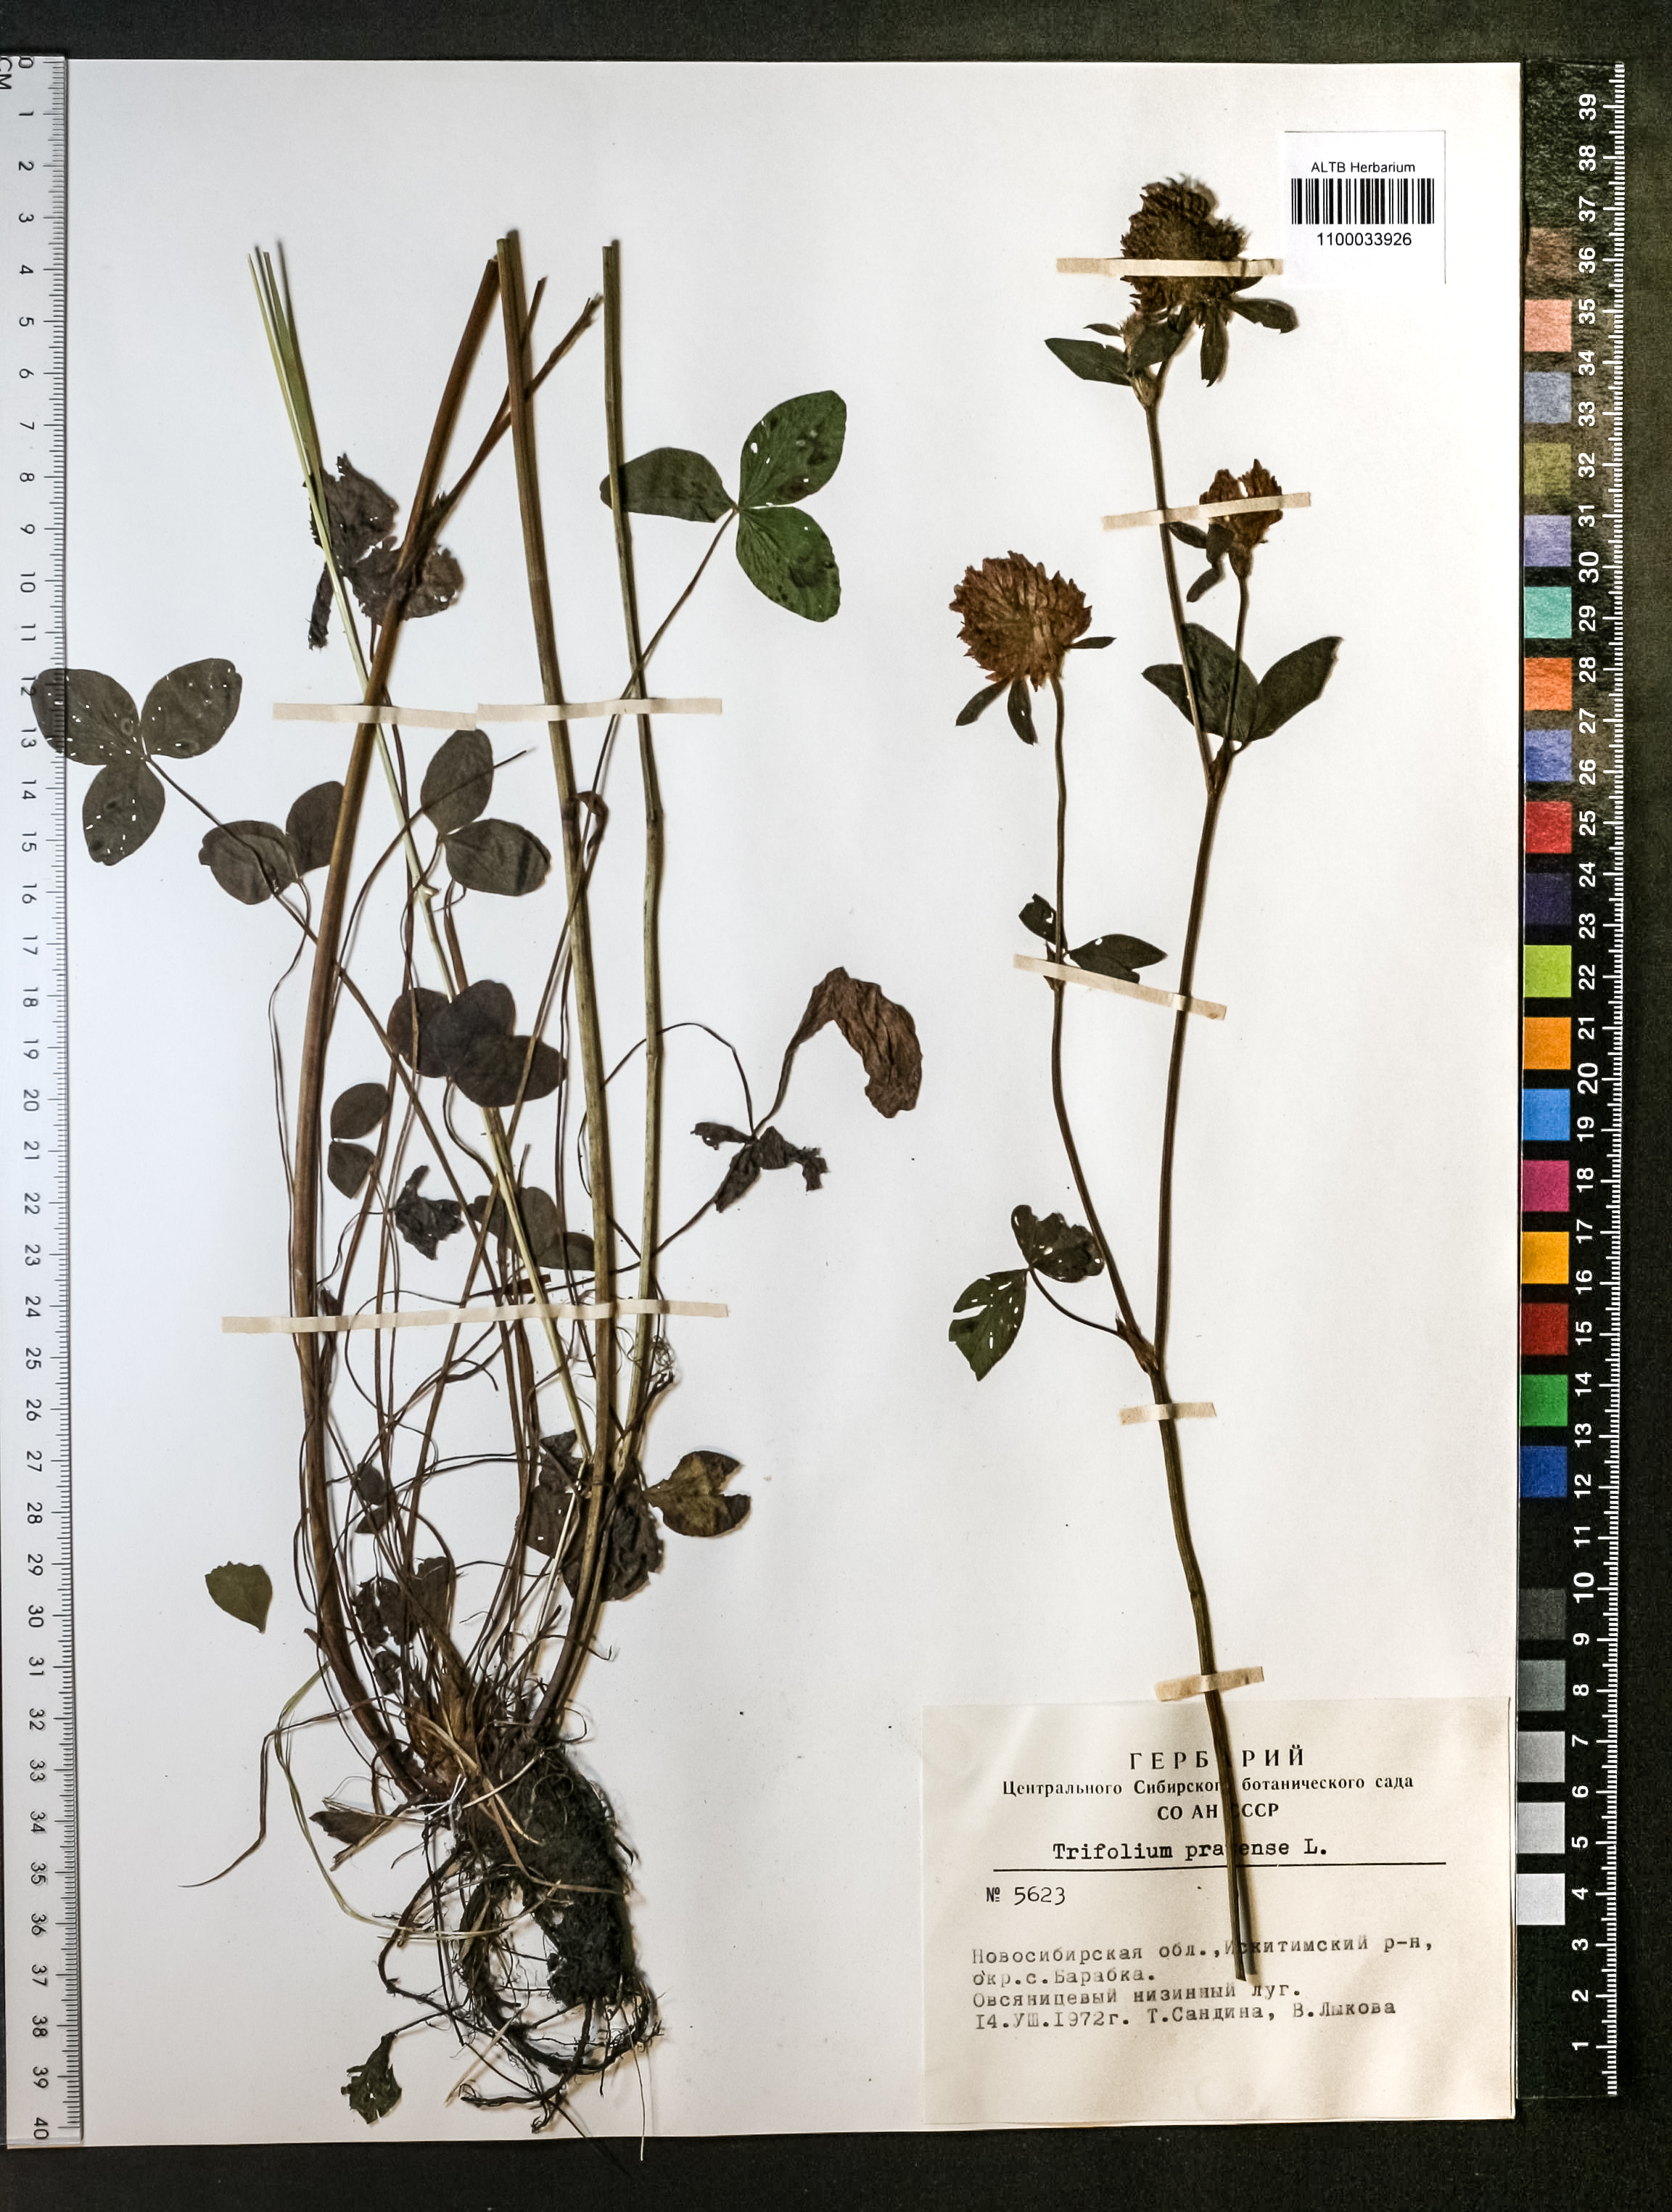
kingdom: Plantae
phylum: Tracheophyta
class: Magnoliopsida
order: Fabales
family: Fabaceae
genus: Trifolium
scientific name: Trifolium pratense
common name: Red clover
